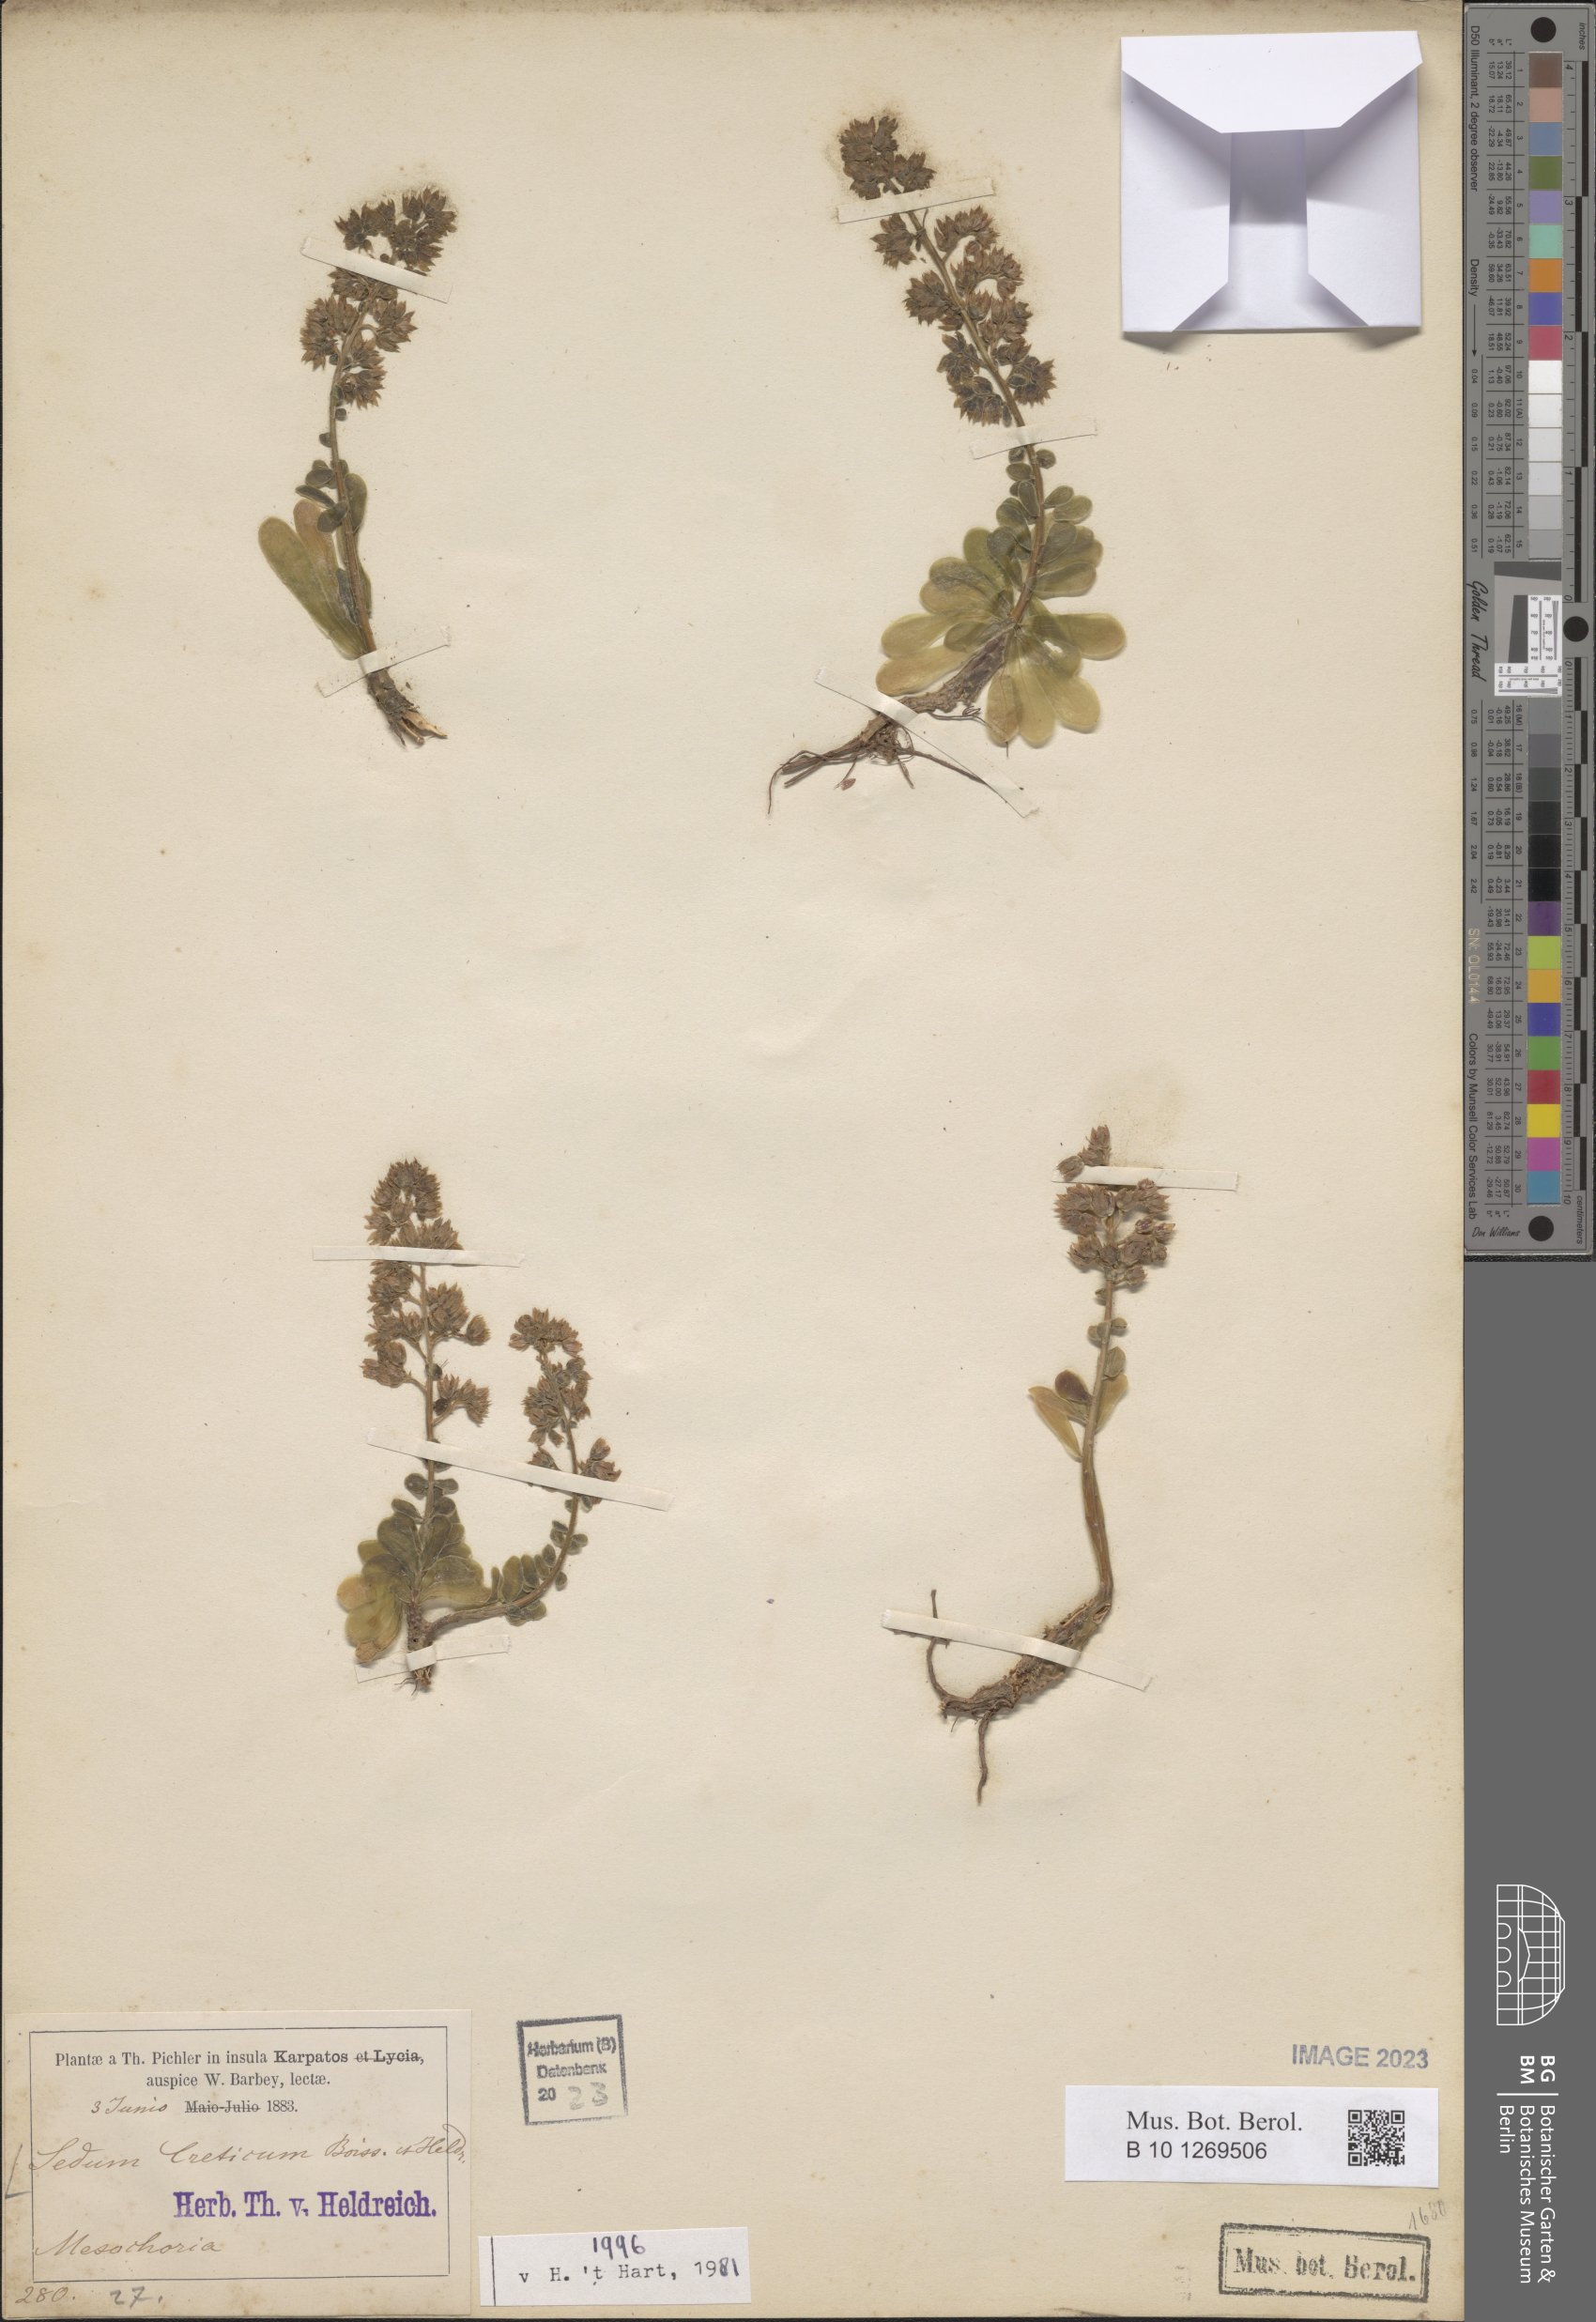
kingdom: Plantae
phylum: Tracheophyta
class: Magnoliopsida
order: Saxifragales
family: Crassulaceae
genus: Sedum
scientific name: Sedum creticum
